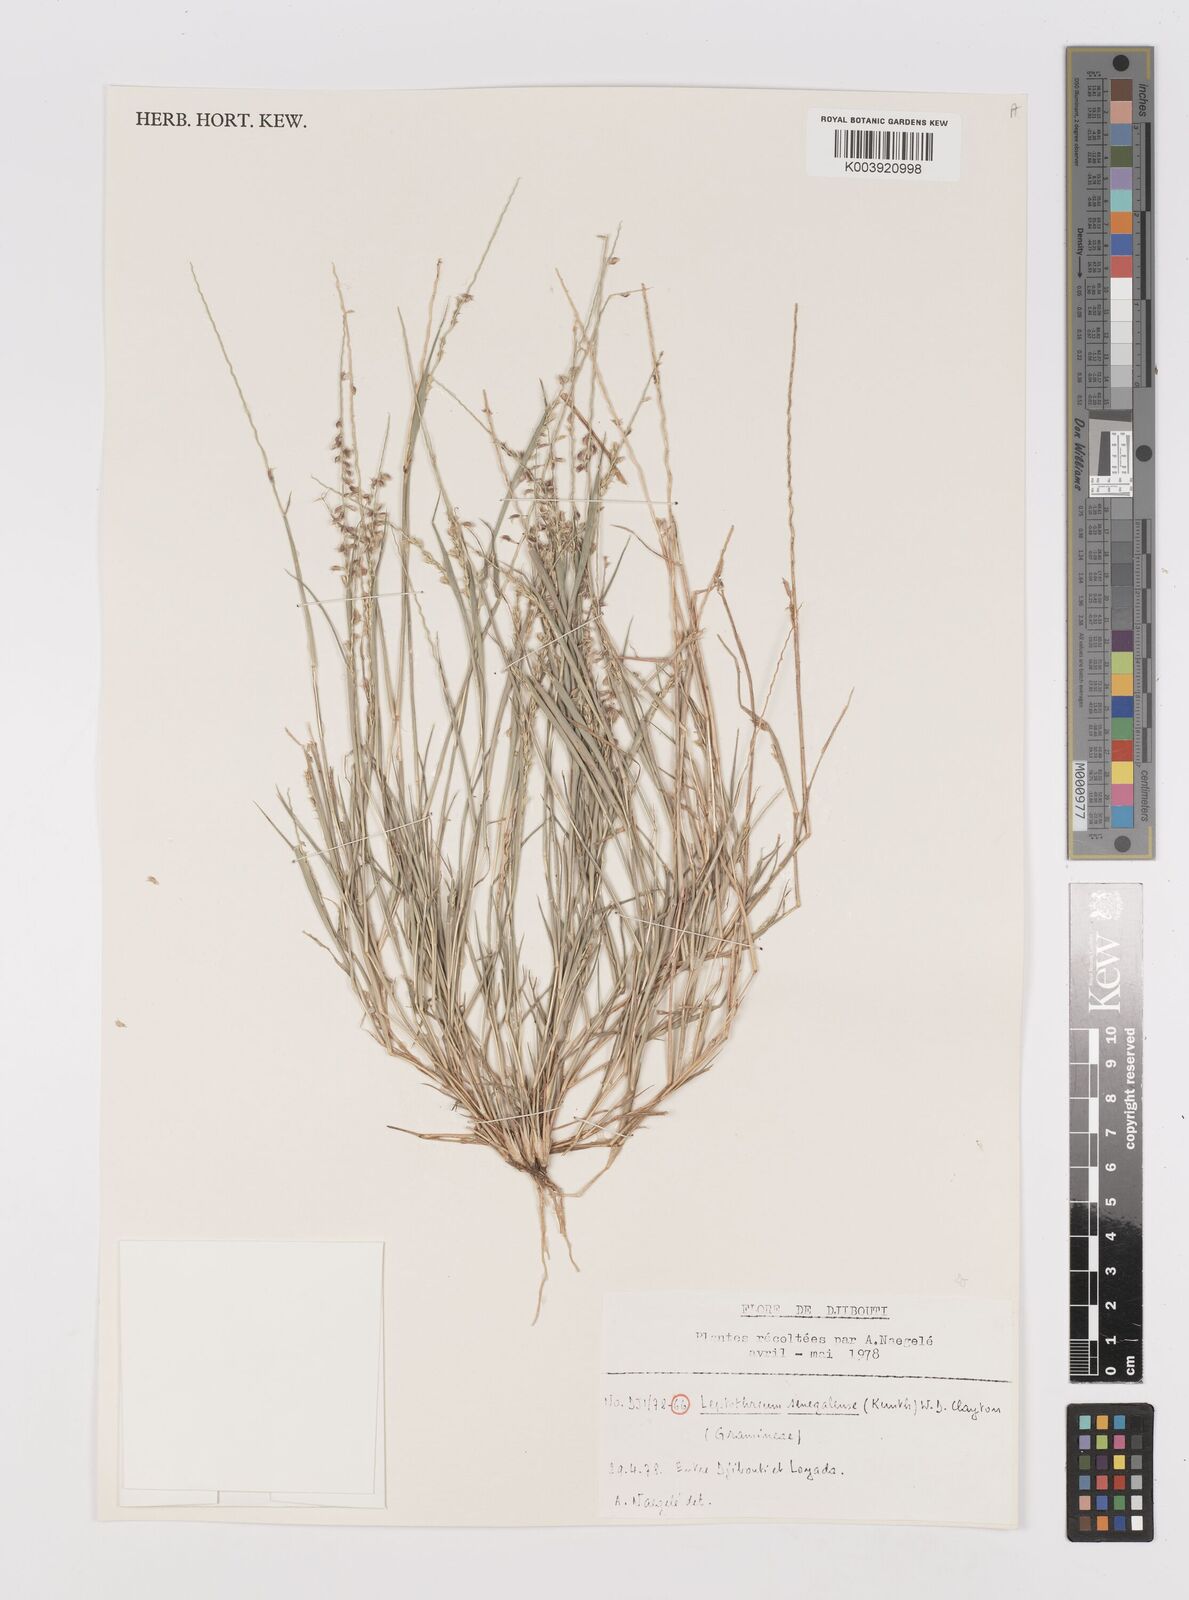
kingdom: Plantae
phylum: Tracheophyta
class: Liliopsida
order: Poales
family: Poaceae
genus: Leptothrium
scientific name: Leptothrium senegalense
